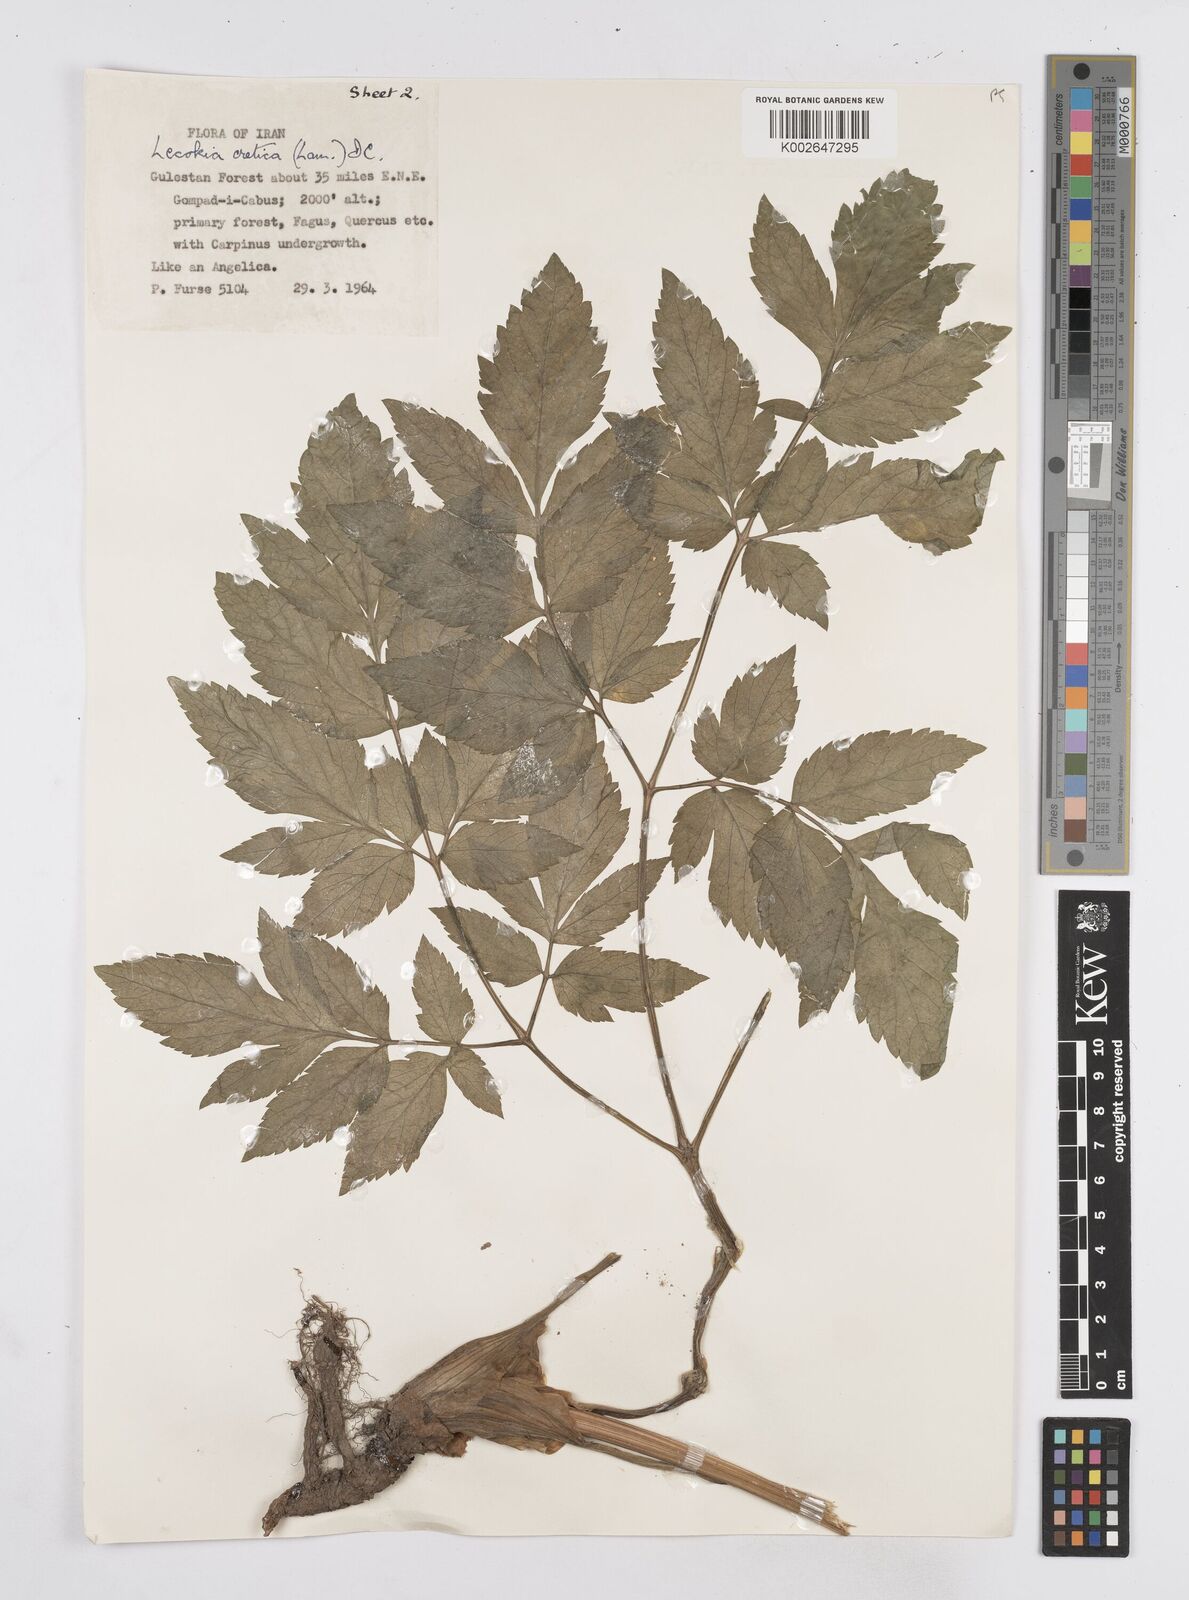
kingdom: Plantae
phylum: Tracheophyta
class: Magnoliopsida
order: Apiales
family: Apiaceae
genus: Lecokia
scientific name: Lecokia cretica
